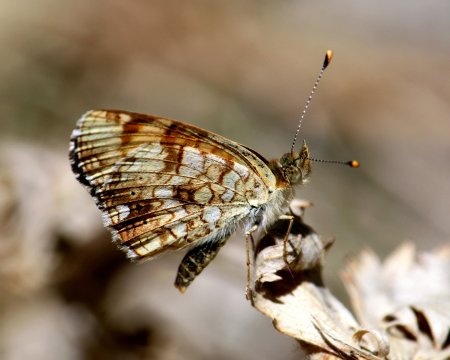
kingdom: Animalia
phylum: Arthropoda
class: Insecta
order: Lepidoptera
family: Nymphalidae
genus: Eresia
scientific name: Eresia aveyrona
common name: Mylitta Crescent
